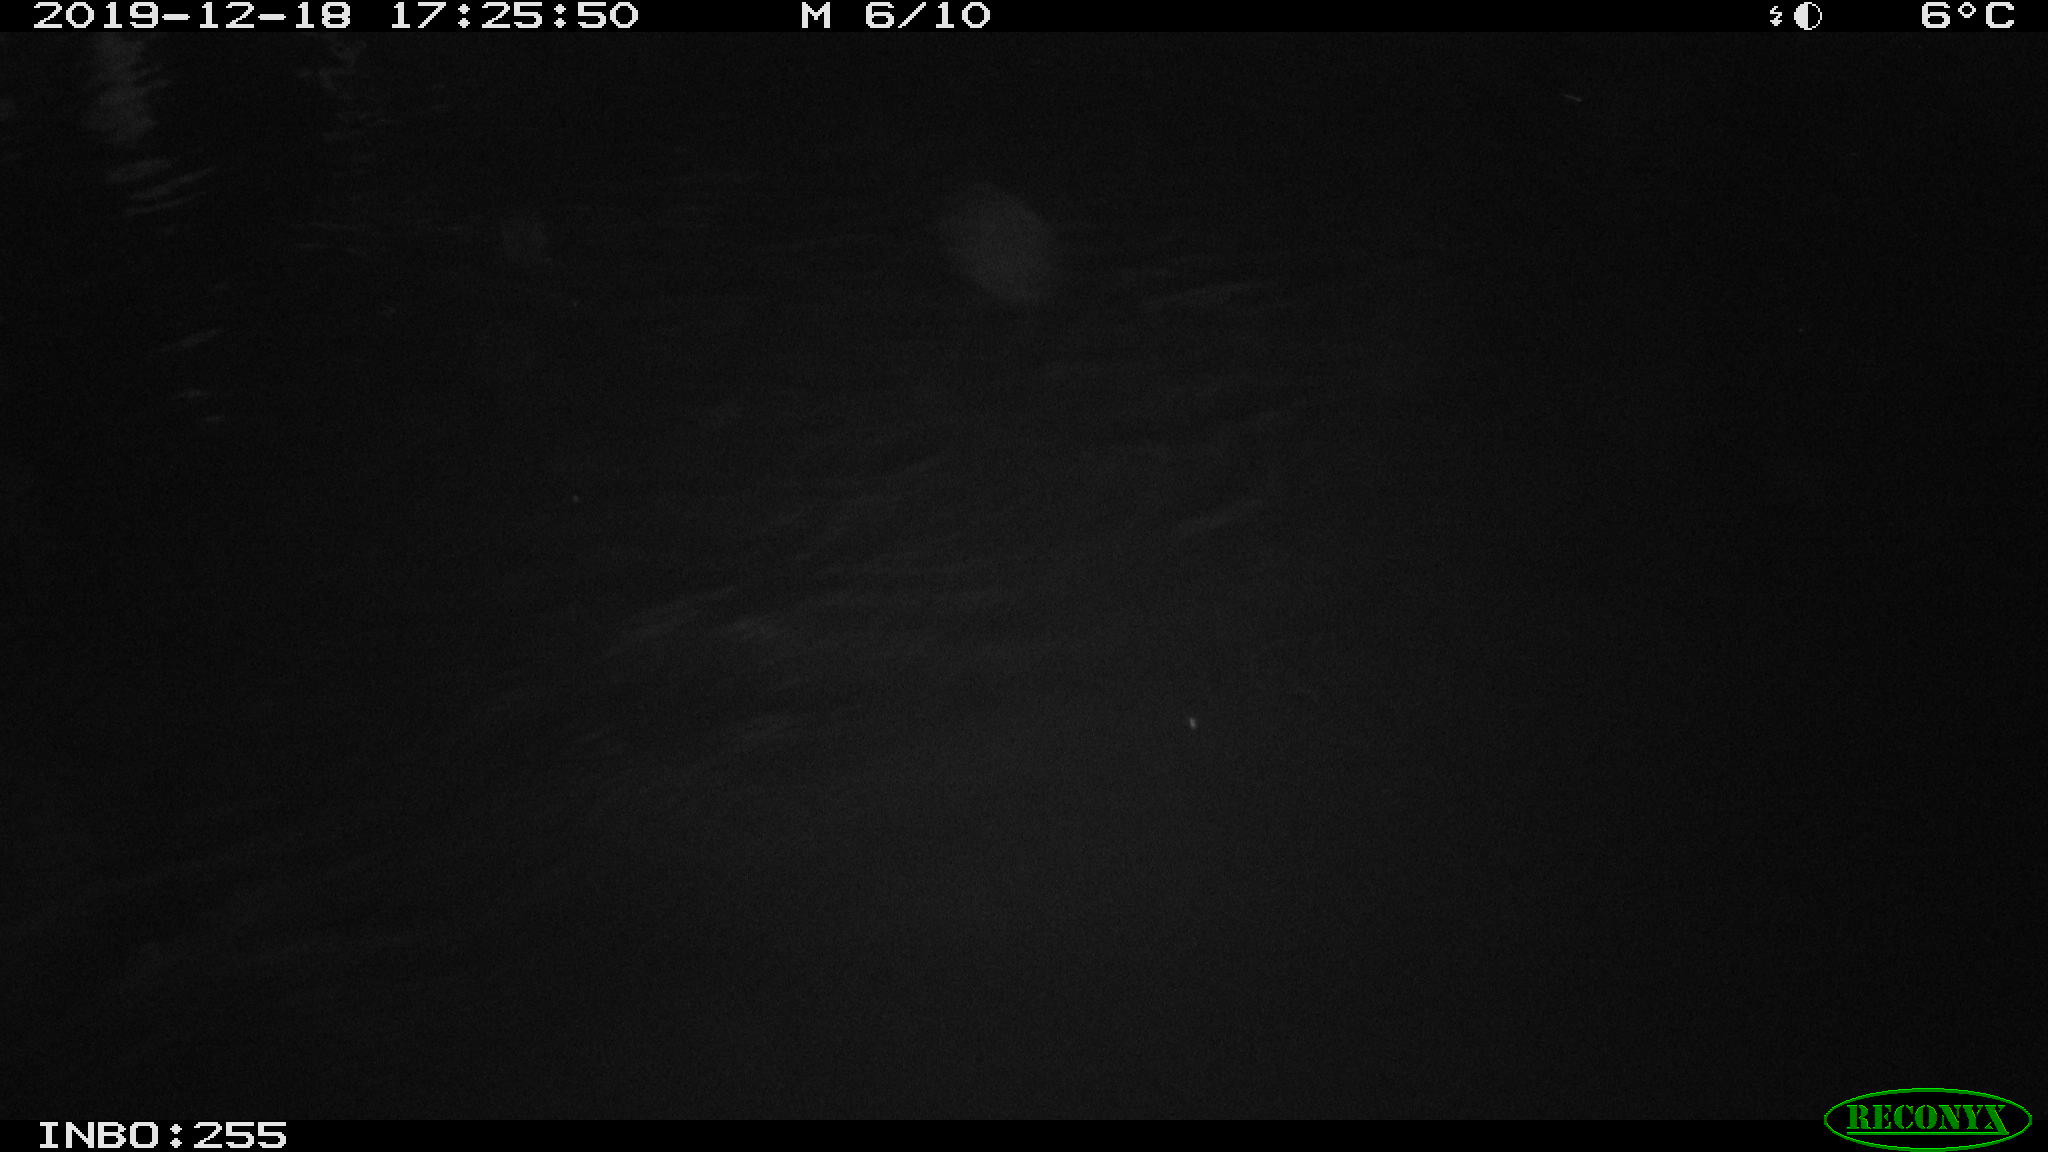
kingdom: Animalia
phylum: Chordata
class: Aves
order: Anseriformes
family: Anatidae
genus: Anas
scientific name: Anas platyrhynchos
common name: Mallard
